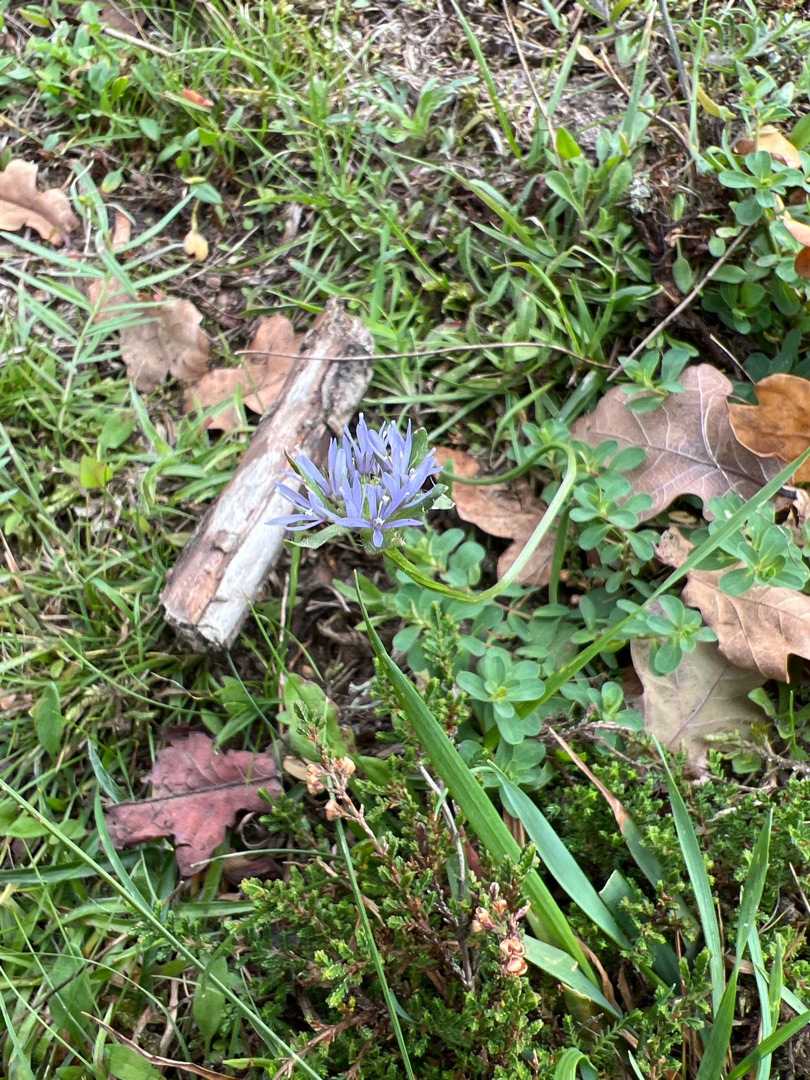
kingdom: Plantae
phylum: Tracheophyta
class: Magnoliopsida
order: Asterales
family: Campanulaceae
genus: Jasione
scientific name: Jasione montana
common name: Blåmunke
